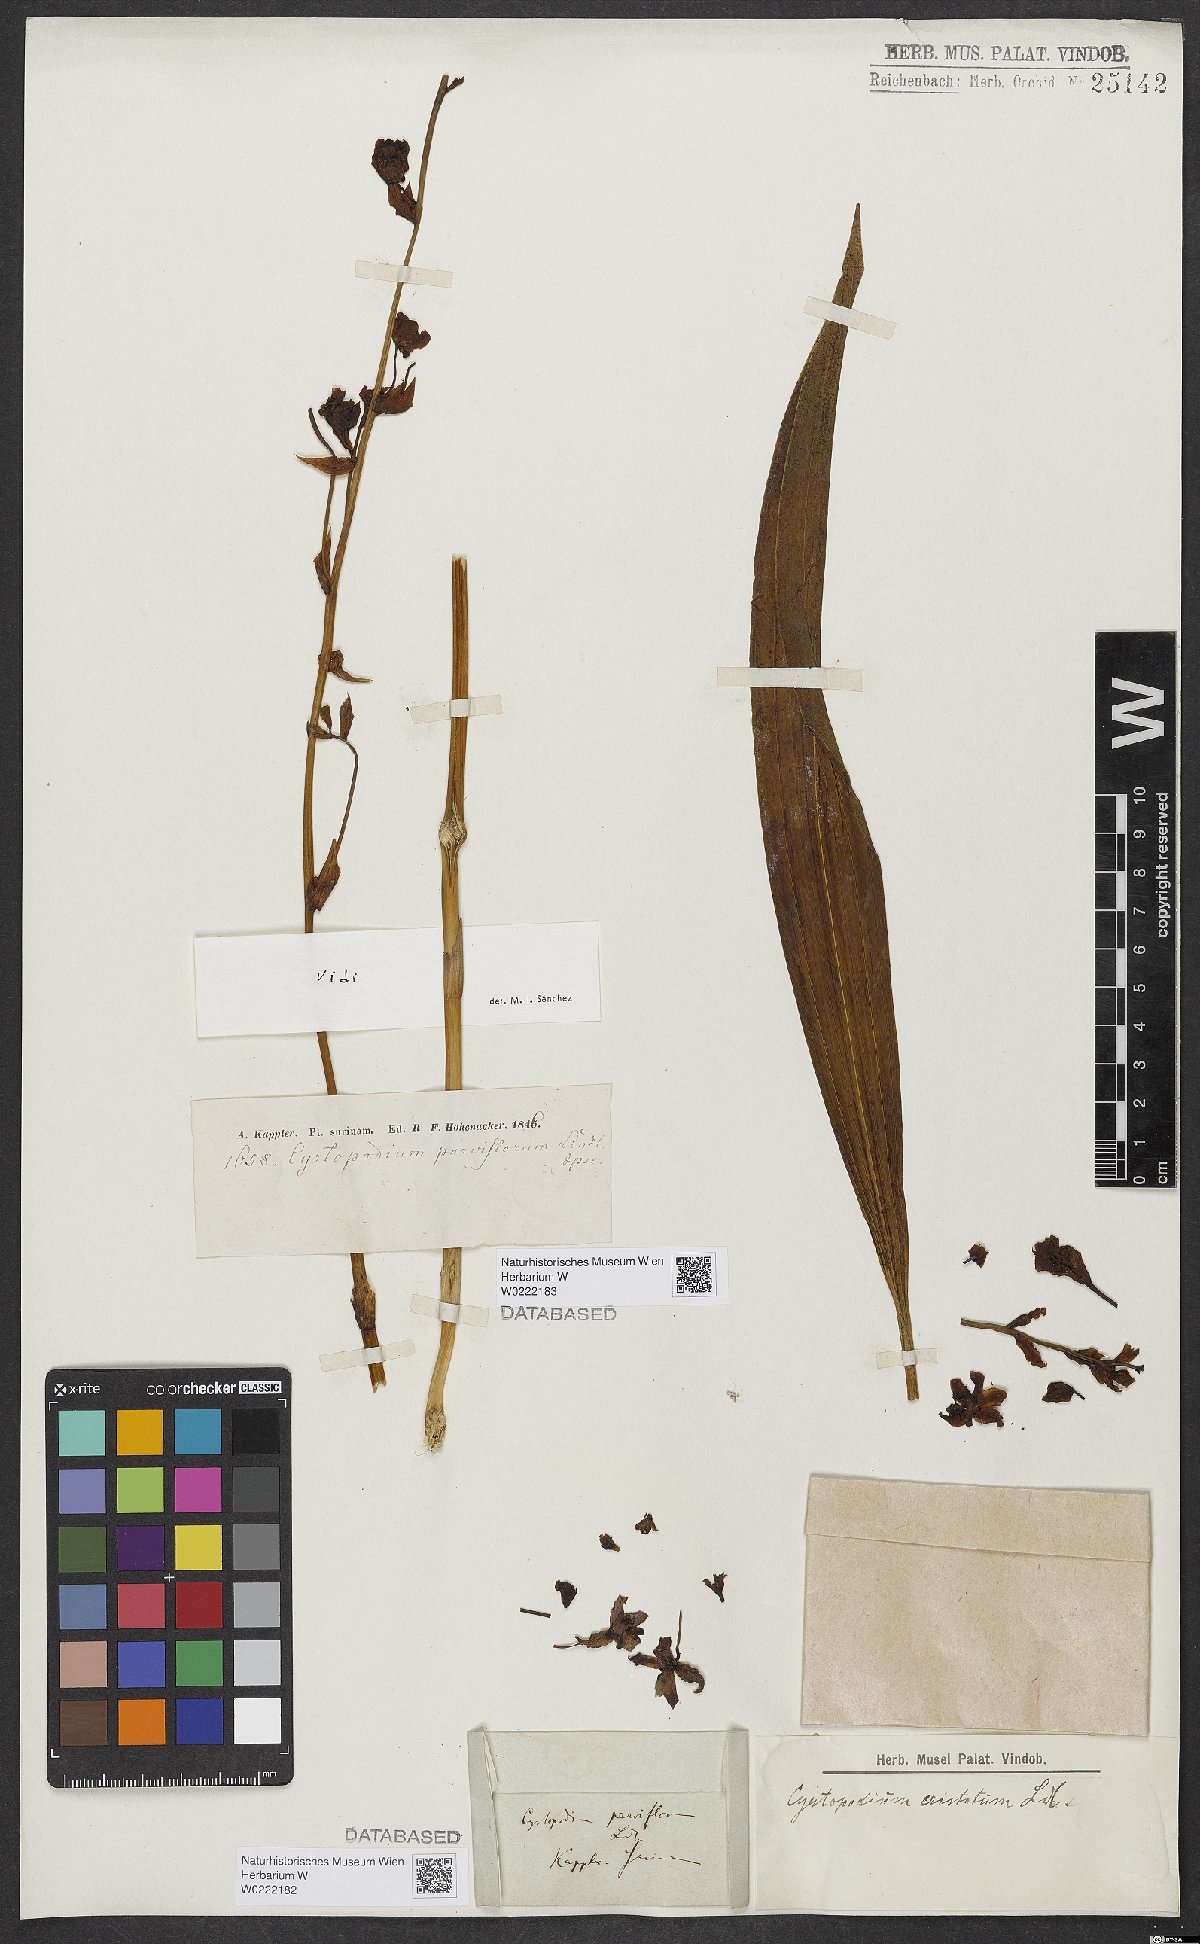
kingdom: Plantae
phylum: Tracheophyta
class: Liliopsida
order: Asparagales
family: Orchidaceae
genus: Cyrtopodium
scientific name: Cyrtopodium parviflorum
